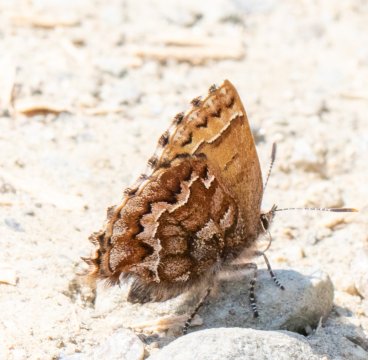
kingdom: Animalia
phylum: Arthropoda
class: Insecta
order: Lepidoptera
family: Lycaenidae
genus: Incisalia
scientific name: Incisalia niphon
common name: Eastern Pine Elfin
